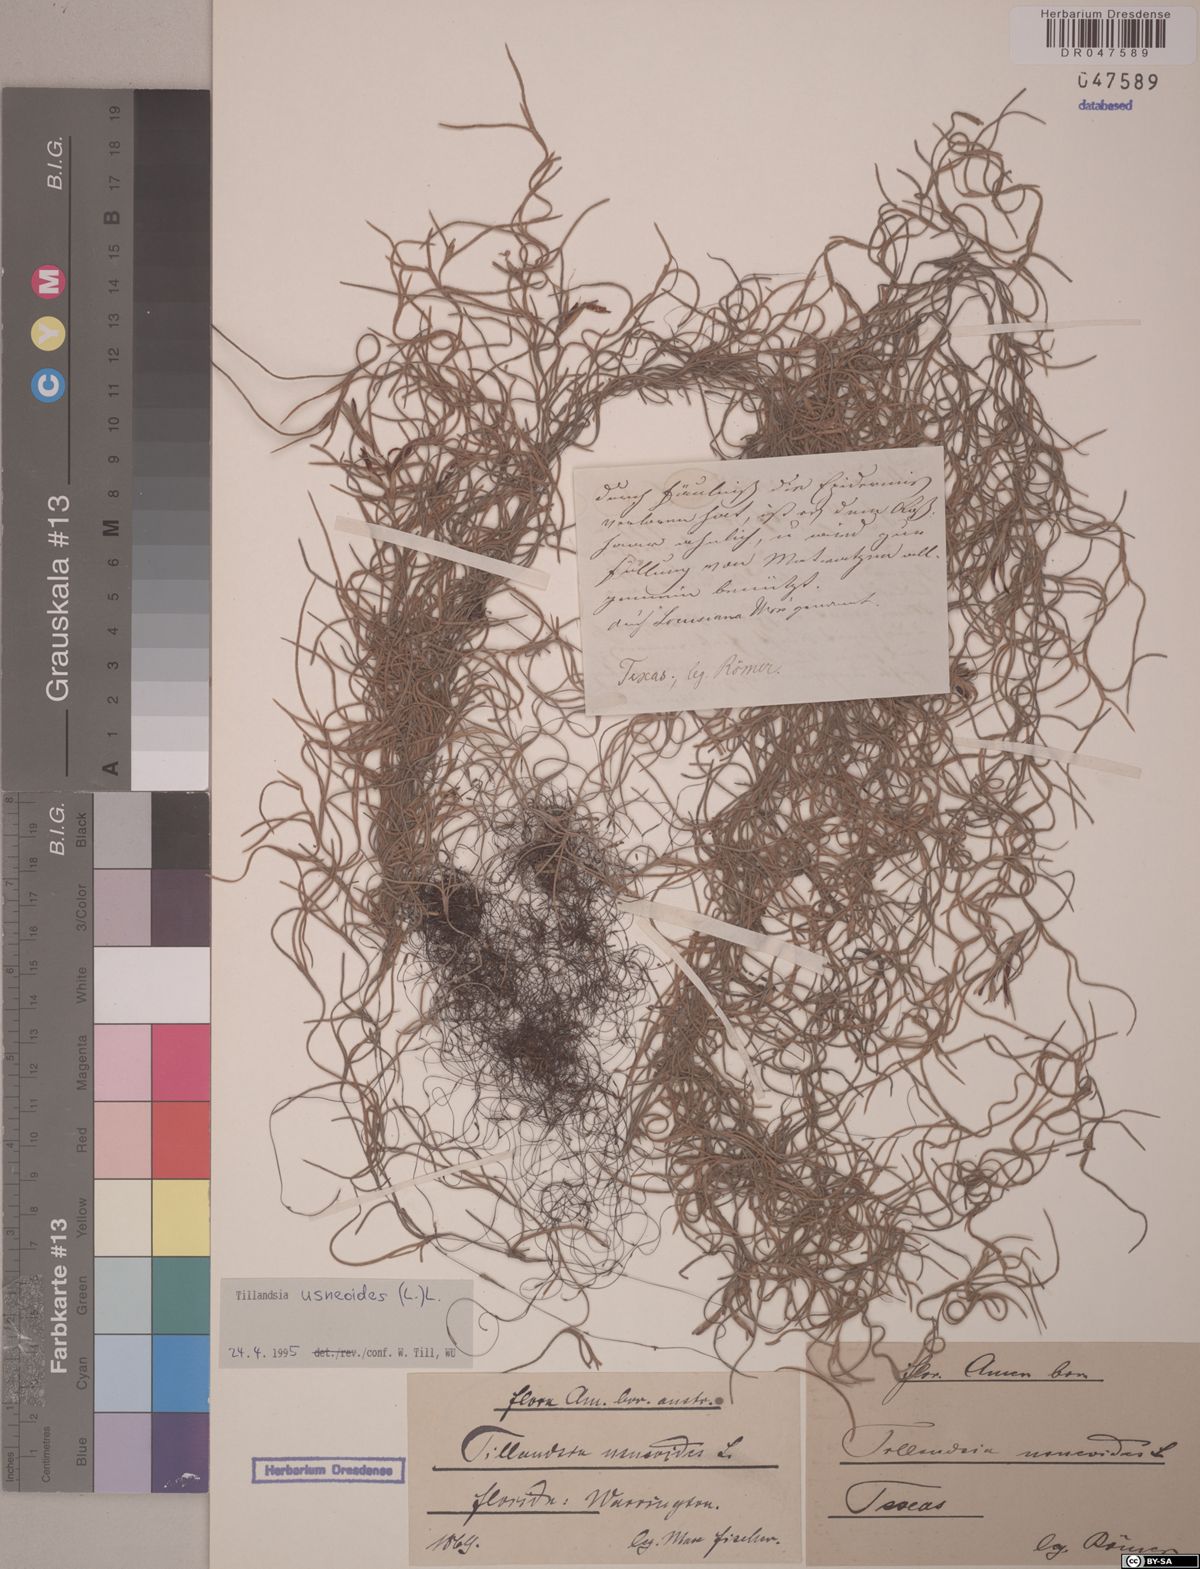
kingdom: Plantae
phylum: Tracheophyta
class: Liliopsida
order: Poales
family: Bromeliaceae
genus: Tillandsia
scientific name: Tillandsia usneoides
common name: Spanish moss
